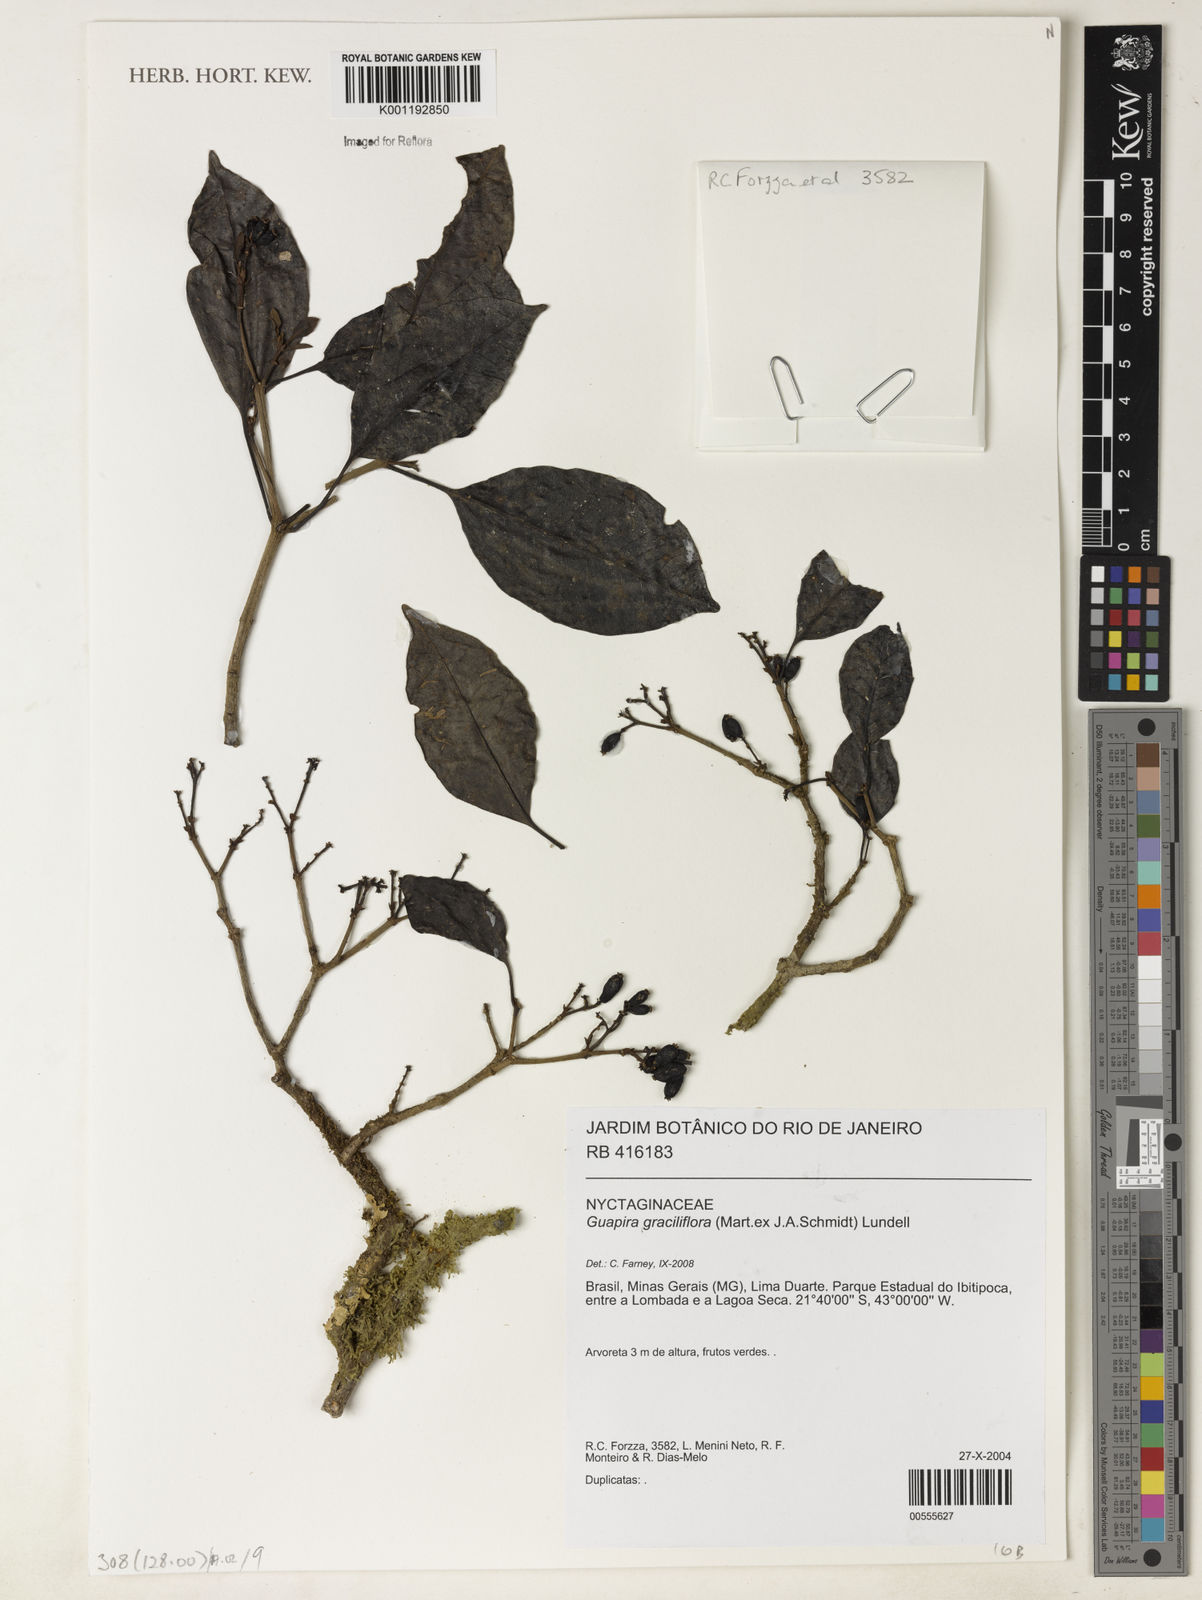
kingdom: Plantae
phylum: Tracheophyta
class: Magnoliopsida
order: Caryophyllales
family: Nyctaginaceae
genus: Guapira
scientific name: Guapira graciliflora
